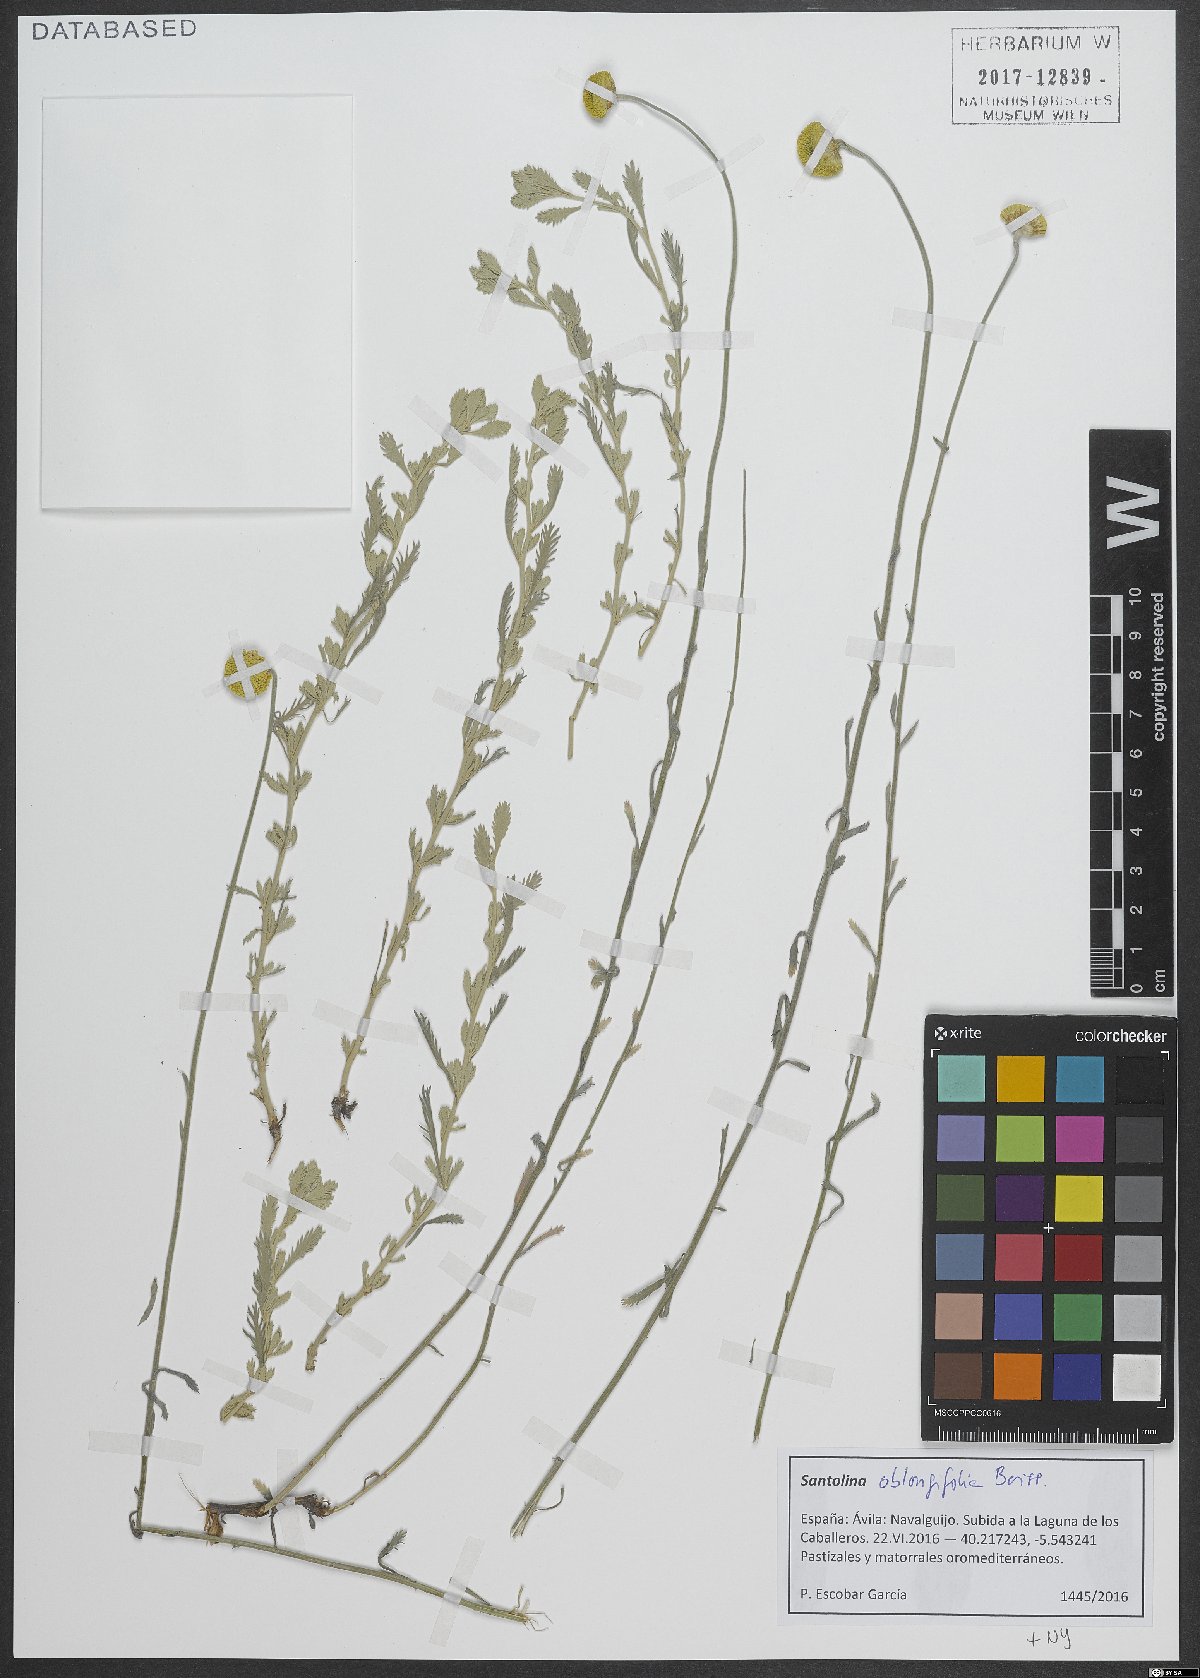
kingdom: Plantae
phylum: Tracheophyta
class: Magnoliopsida
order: Asterales
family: Asteraceae
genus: Santolina
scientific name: Santolina oblongifolia
